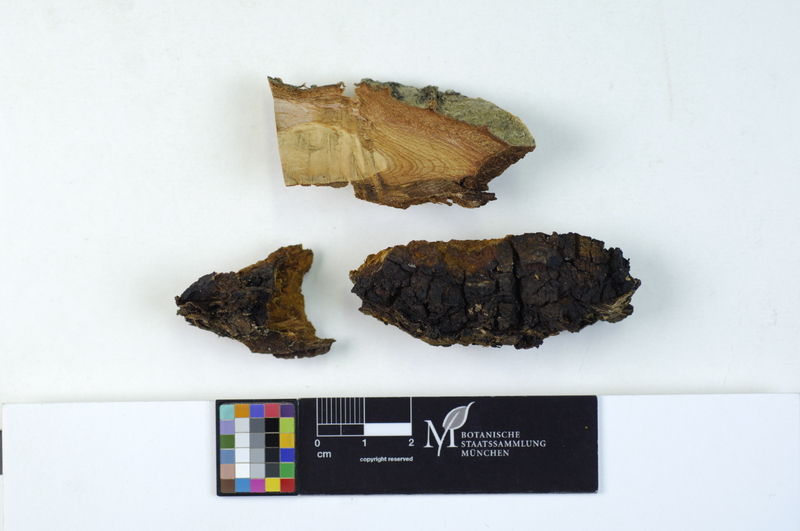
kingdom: Fungi
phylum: Basidiomycota
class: Agaricomycetes
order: Hymenochaetales
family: Hymenochaetaceae
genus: Inonotus
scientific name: Inonotus obliquus
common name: Chaga
